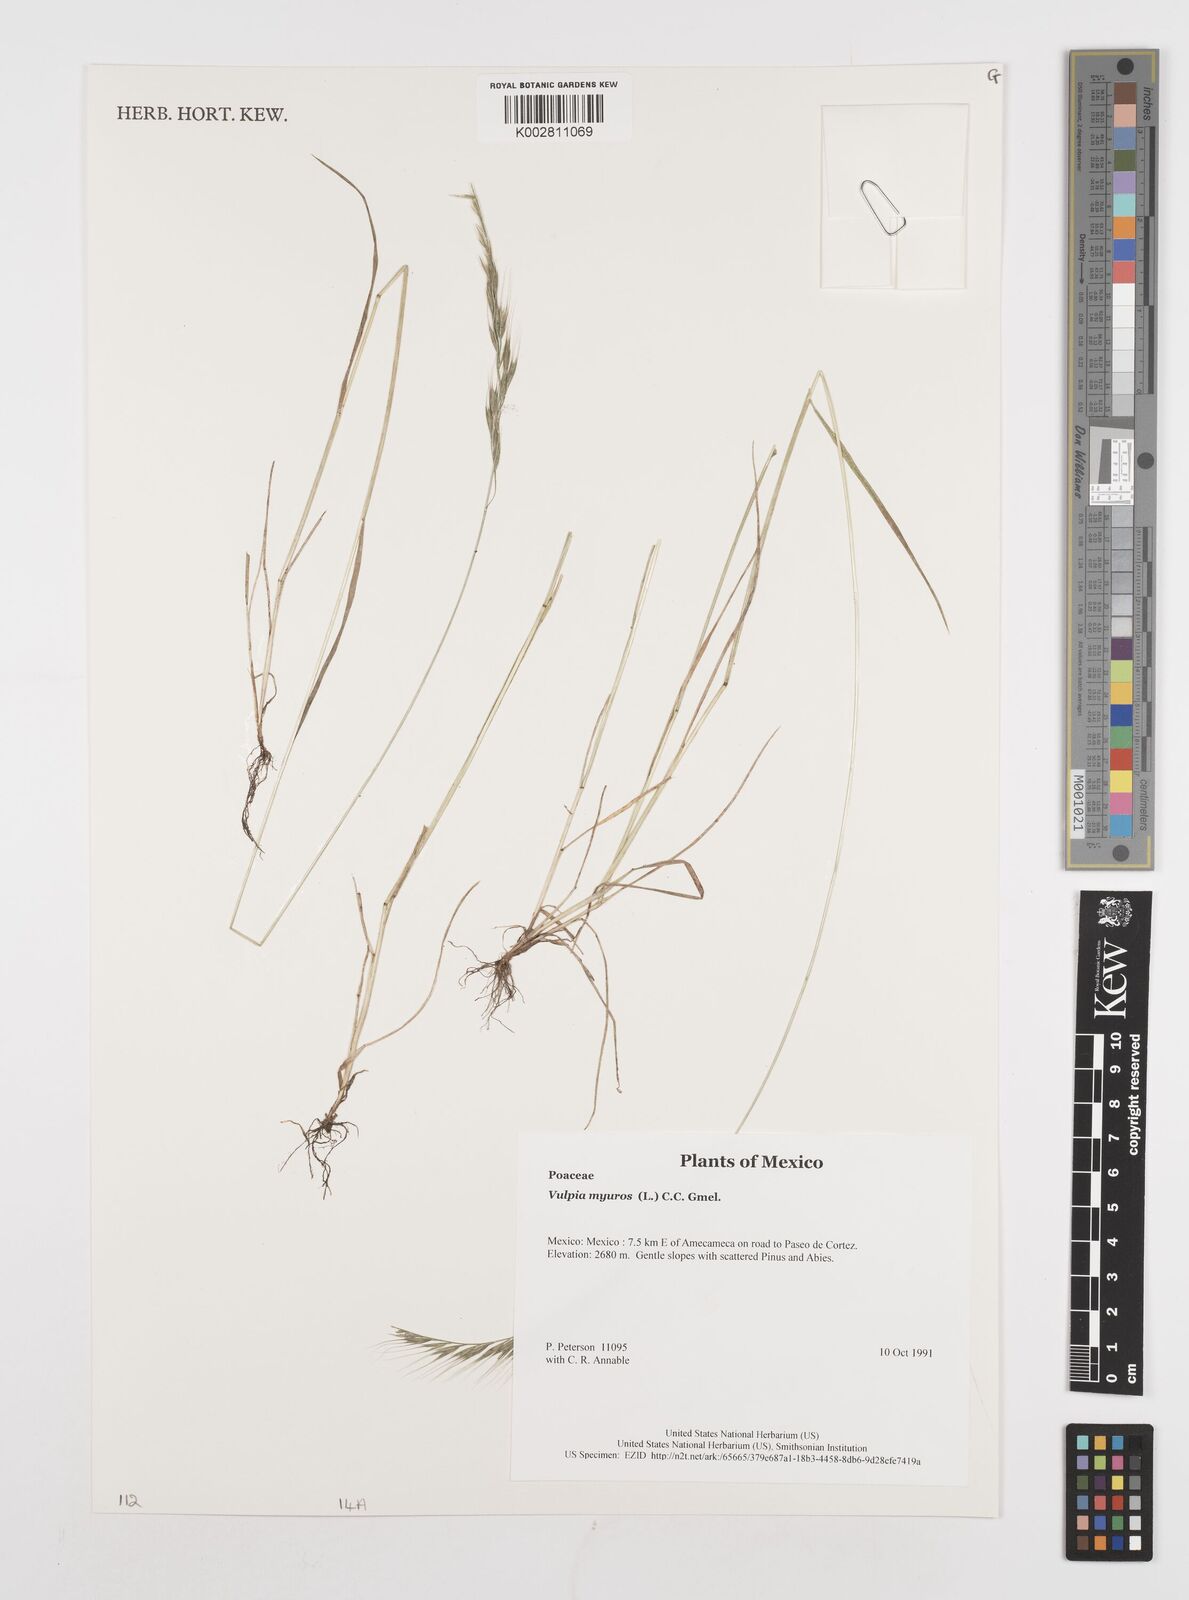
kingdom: Plantae
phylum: Tracheophyta
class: Liliopsida
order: Poales
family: Poaceae
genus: Festuca
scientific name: Festuca myuros
